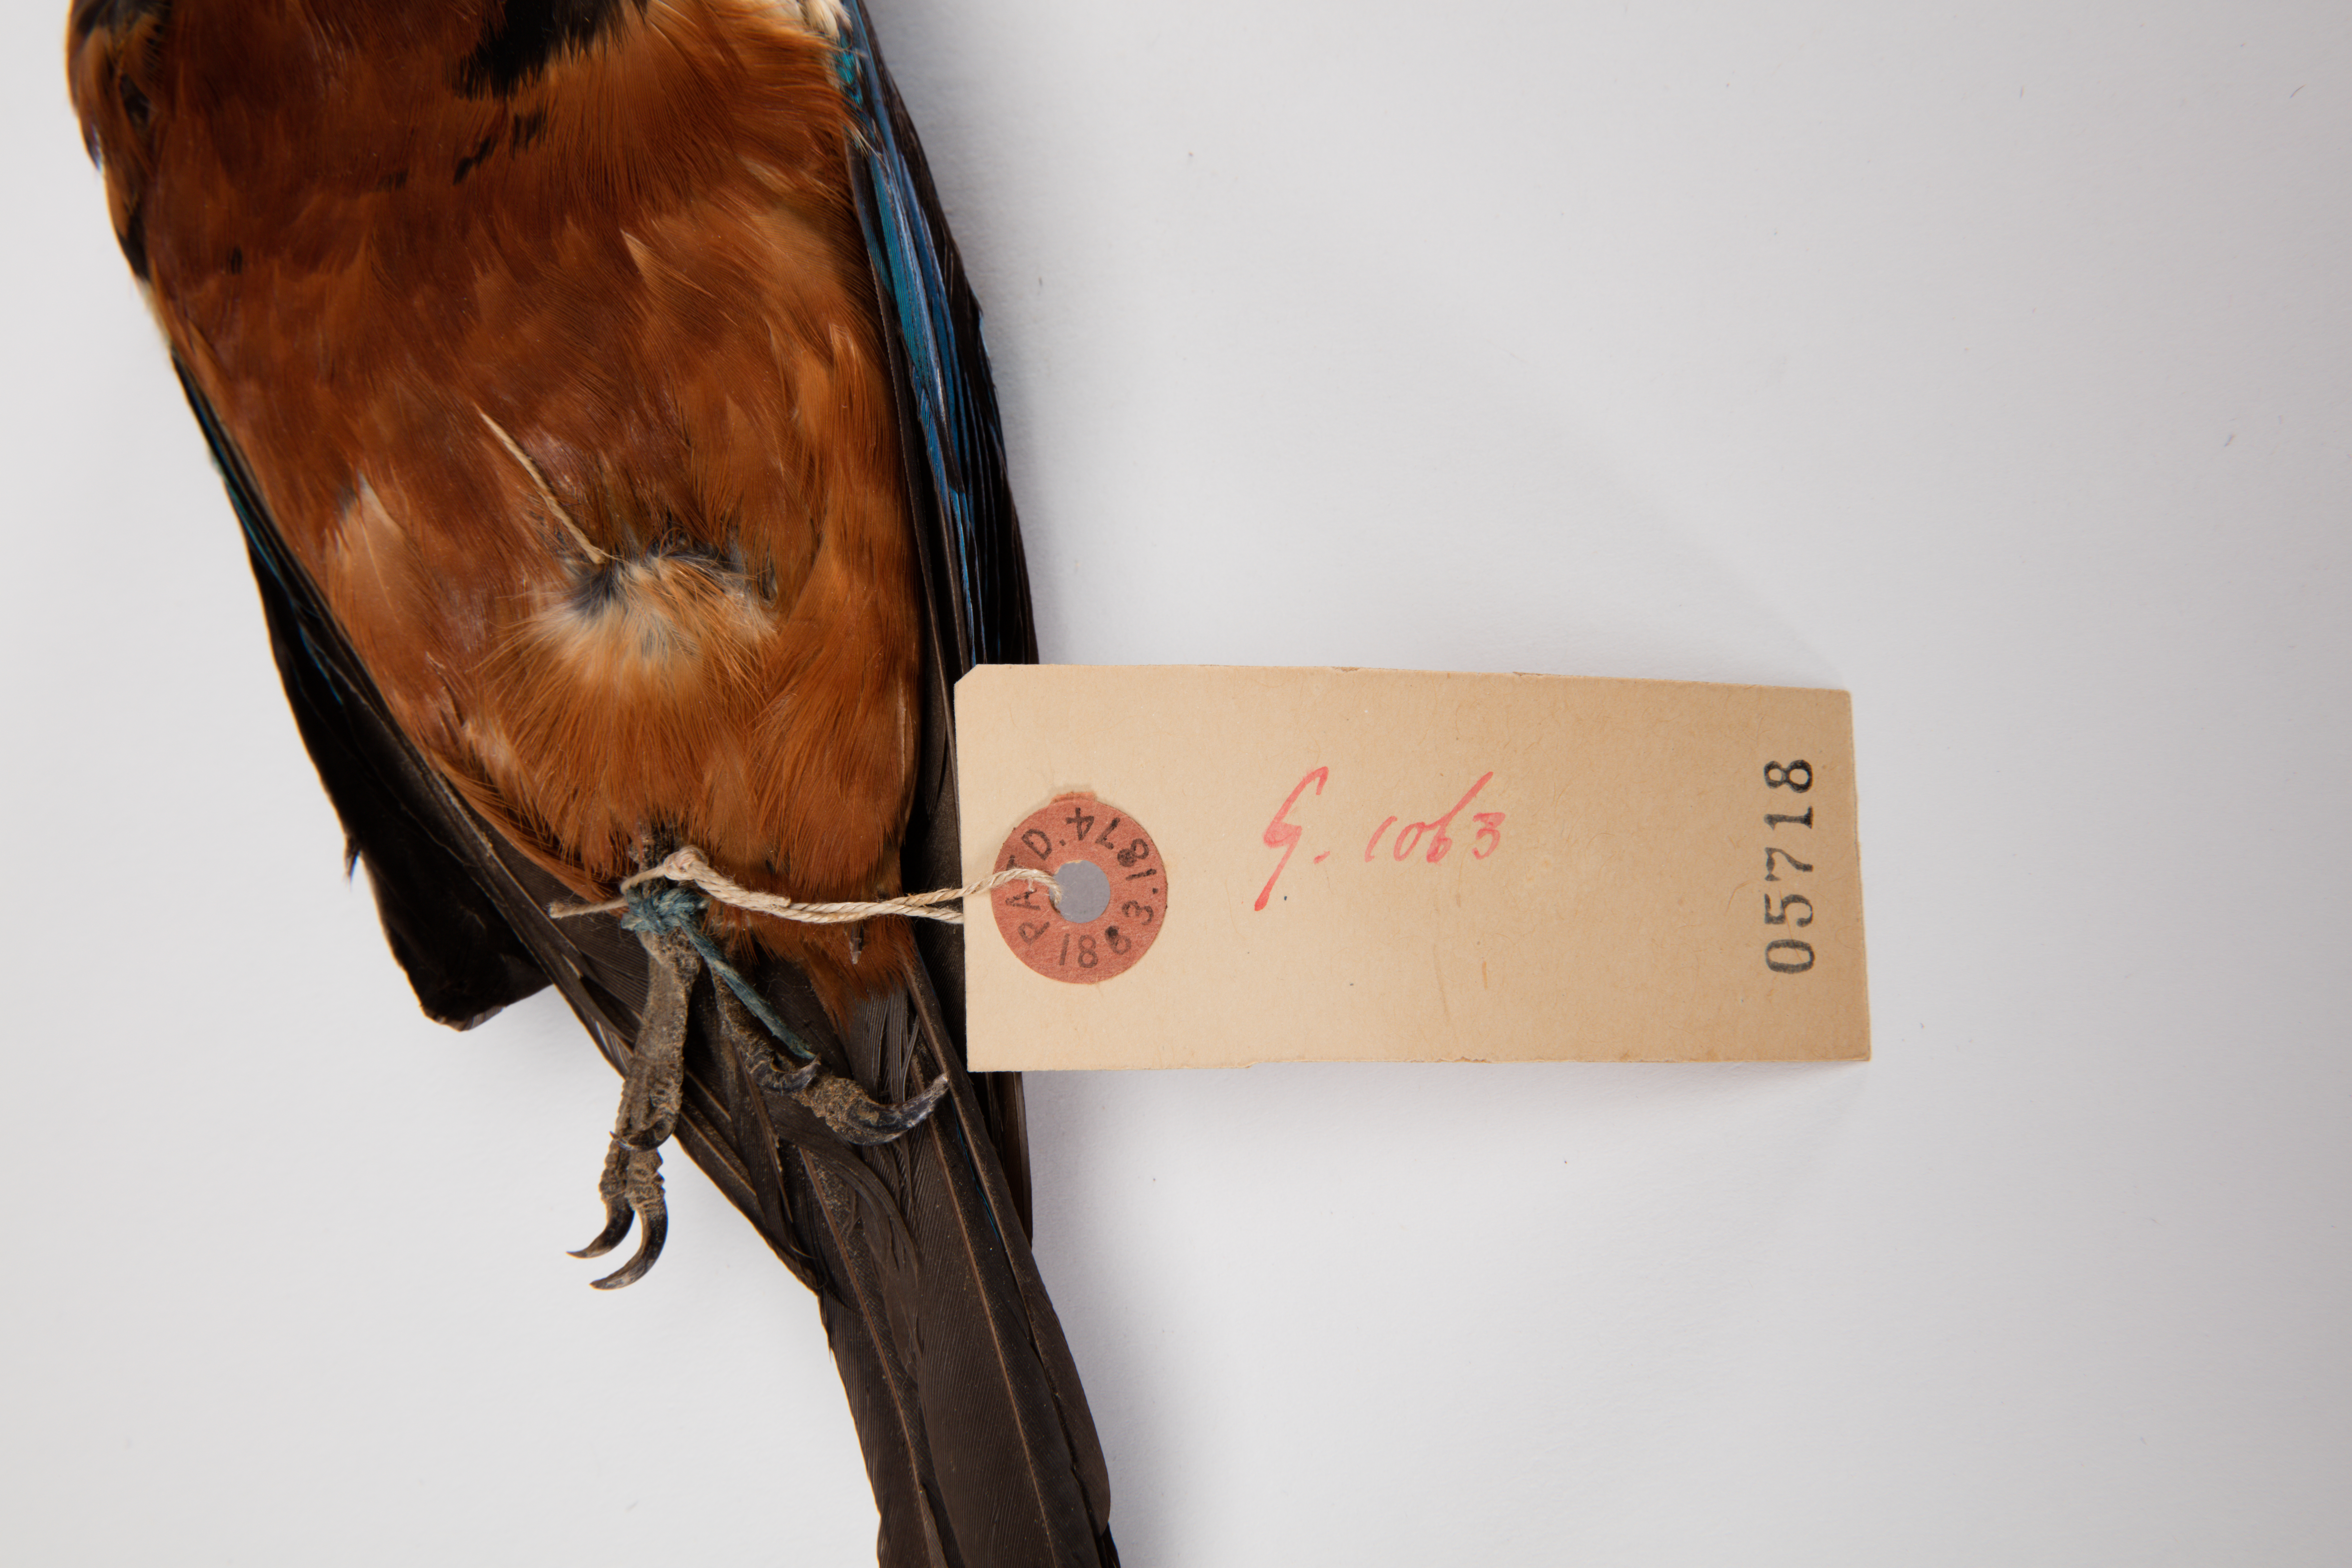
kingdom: Animalia
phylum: Chordata
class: Aves
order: Coraciiformes
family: Alcedinidae
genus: Dacelo
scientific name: Dacelo gaudichaud
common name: Rufous-bellied kookaburra
